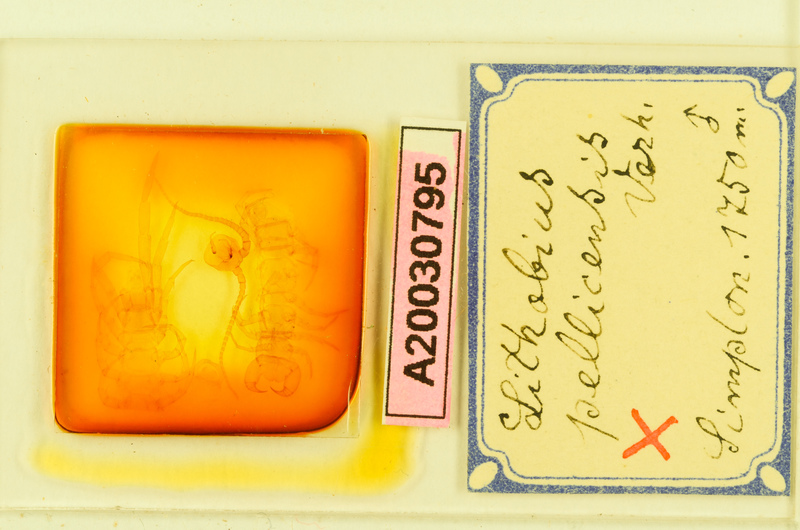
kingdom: Animalia
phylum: Arthropoda
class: Chilopoda
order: Lithobiomorpha
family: Lithobiidae
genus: Lithobius
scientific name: Lithobius pilicornis
